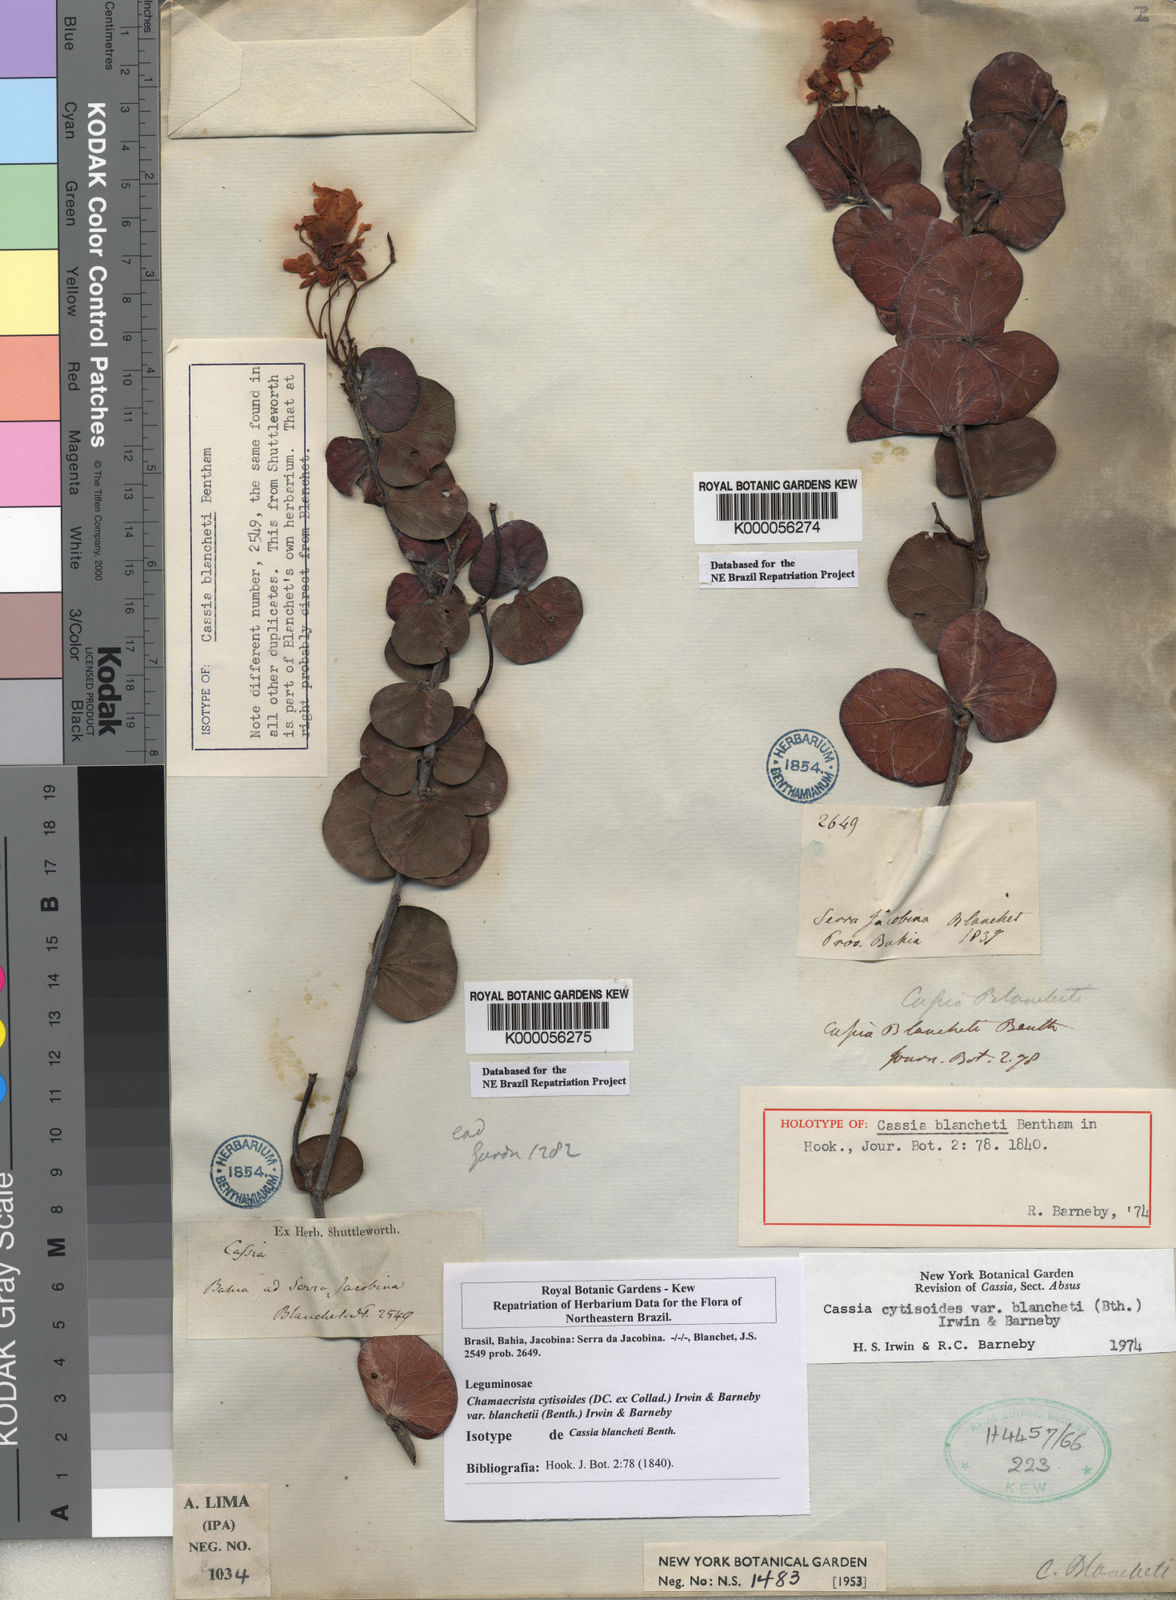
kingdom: Plantae
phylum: Tracheophyta
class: Magnoliopsida
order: Fabales
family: Fabaceae
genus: Chamaecrista
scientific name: Chamaecrista cytisoides
